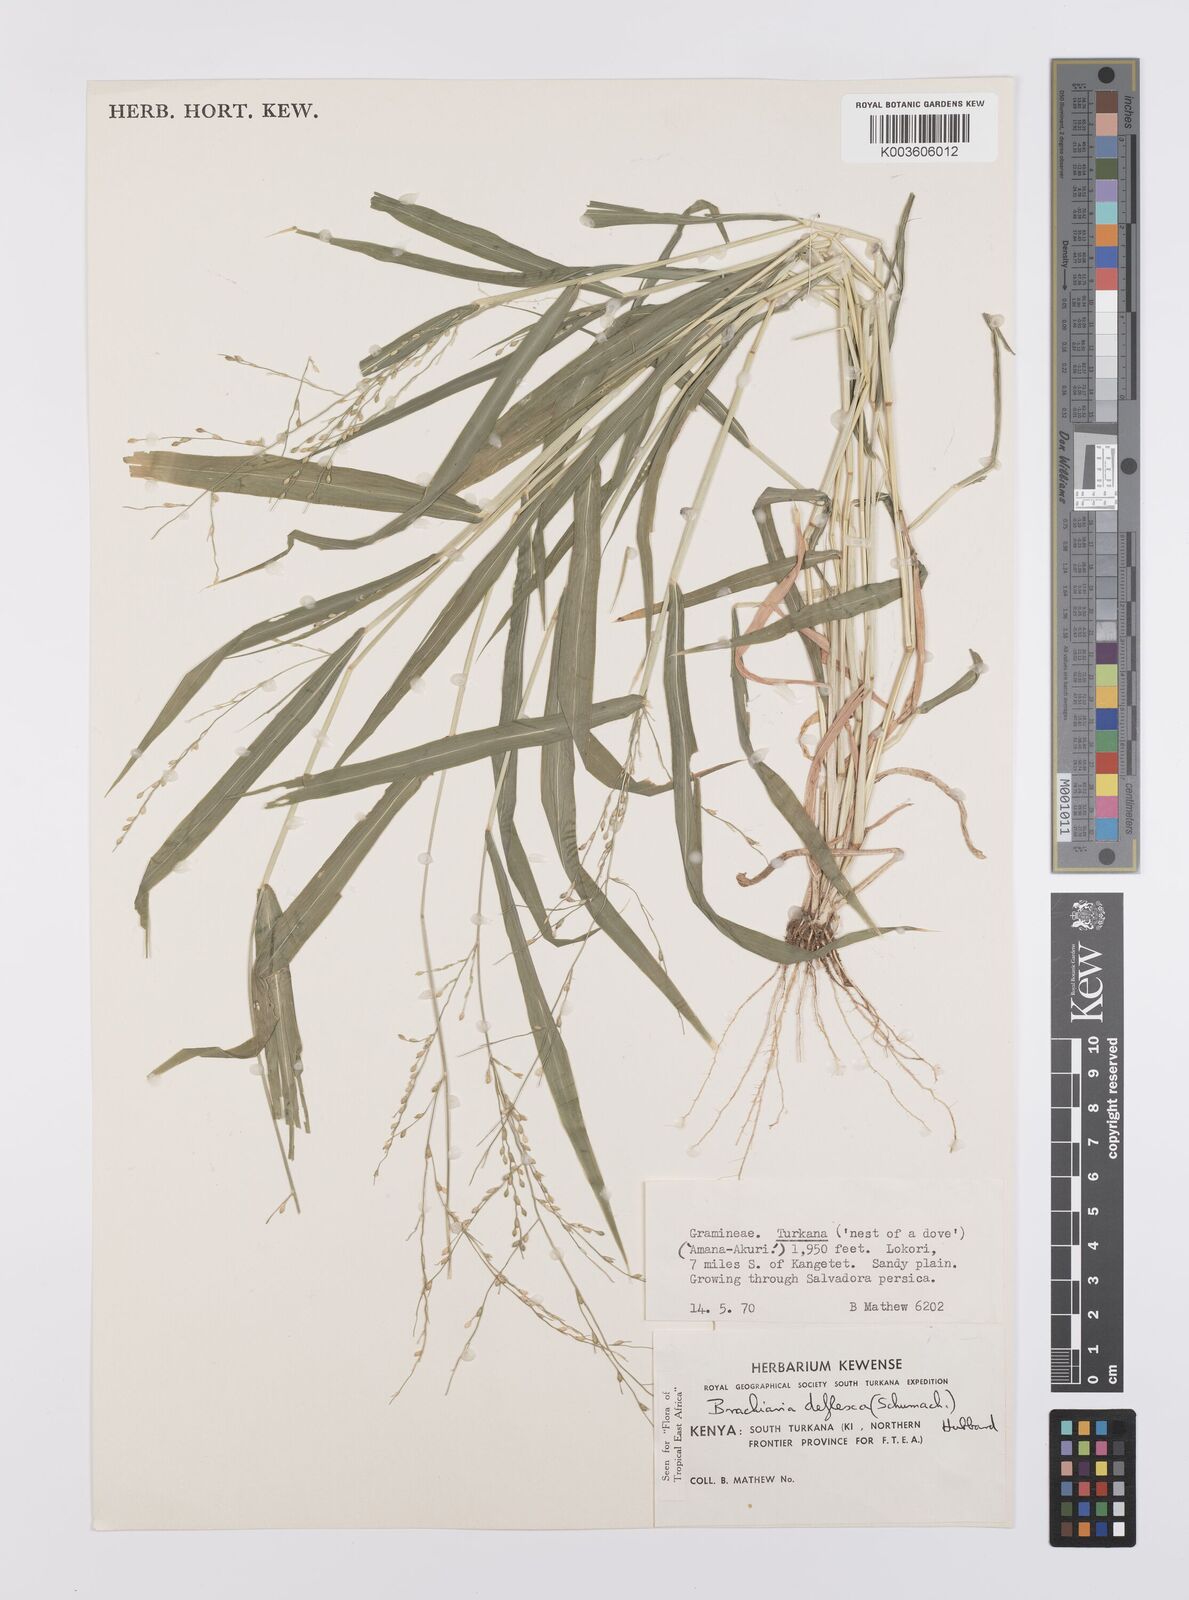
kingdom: Plantae
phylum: Tracheophyta
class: Liliopsida
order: Poales
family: Poaceae
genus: Urochloa
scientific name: Urochloa deflexa
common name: Guinea millet
